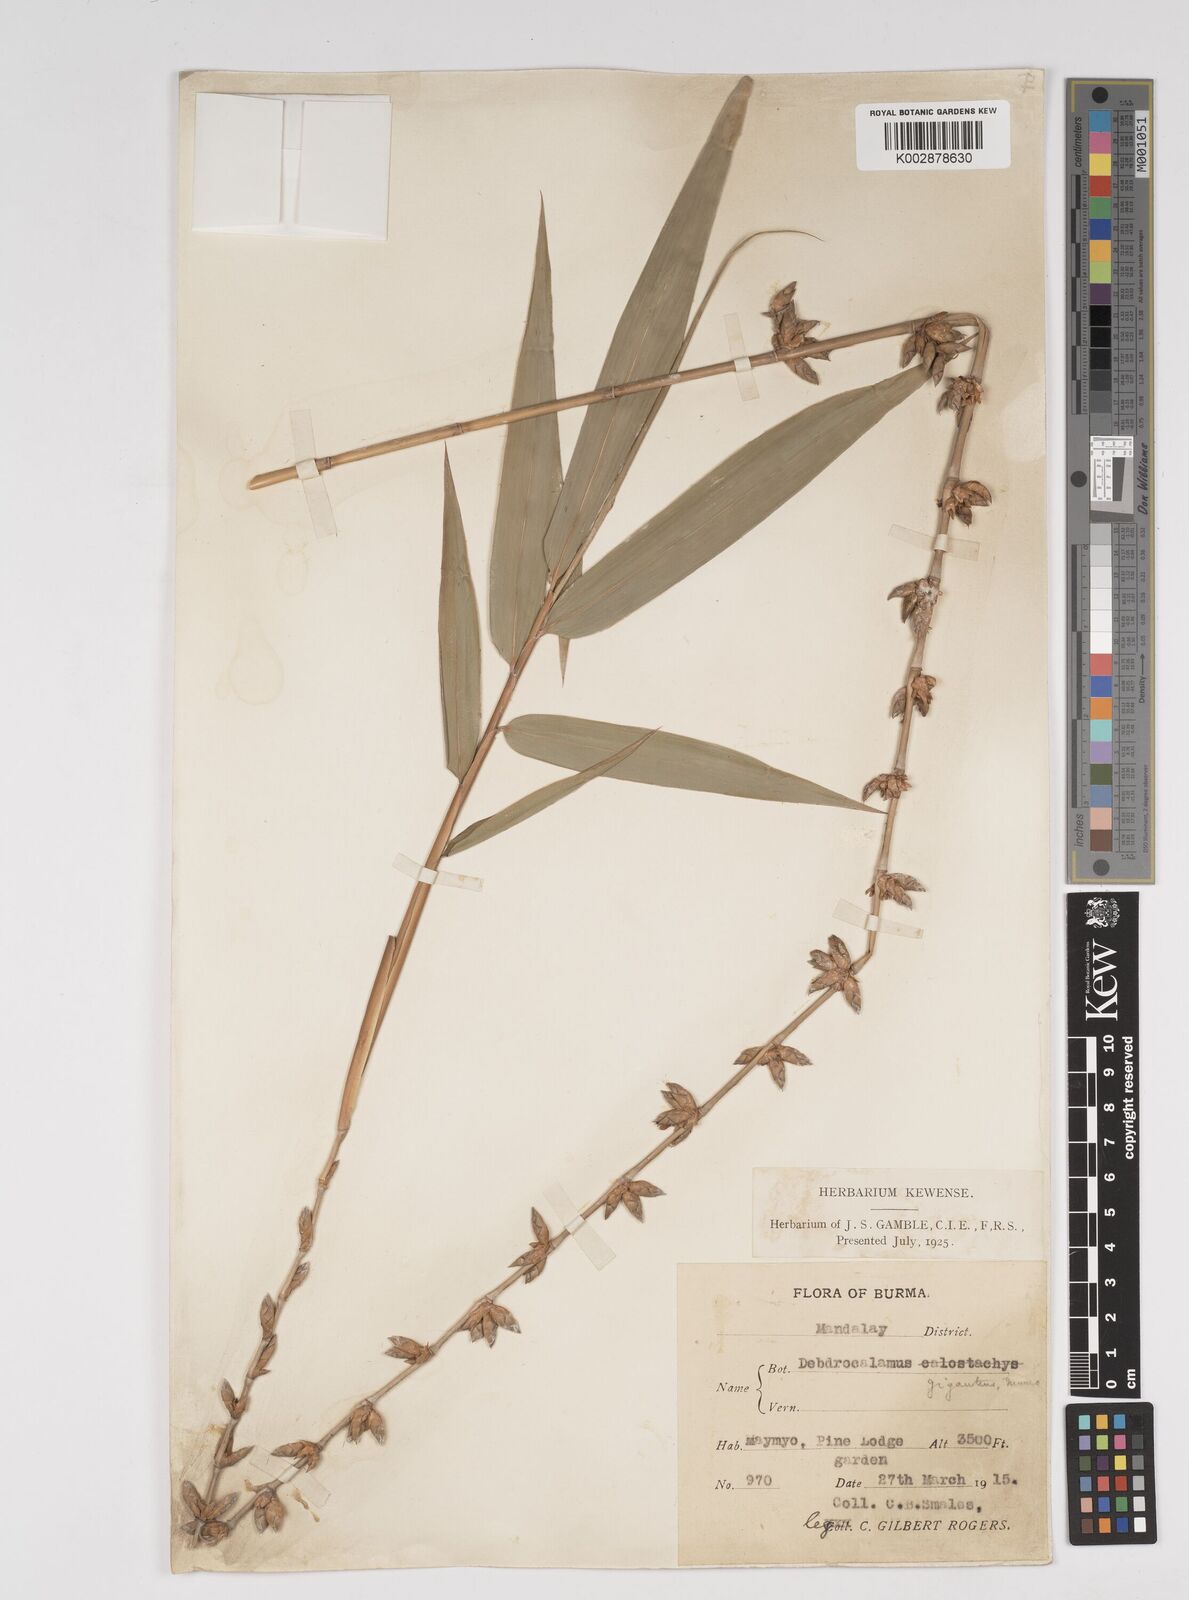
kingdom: Plantae
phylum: Tracheophyta
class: Liliopsida
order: Poales
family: Poaceae
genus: Dendrocalamus
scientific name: Dendrocalamus giganteus
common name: Giant bamboo
